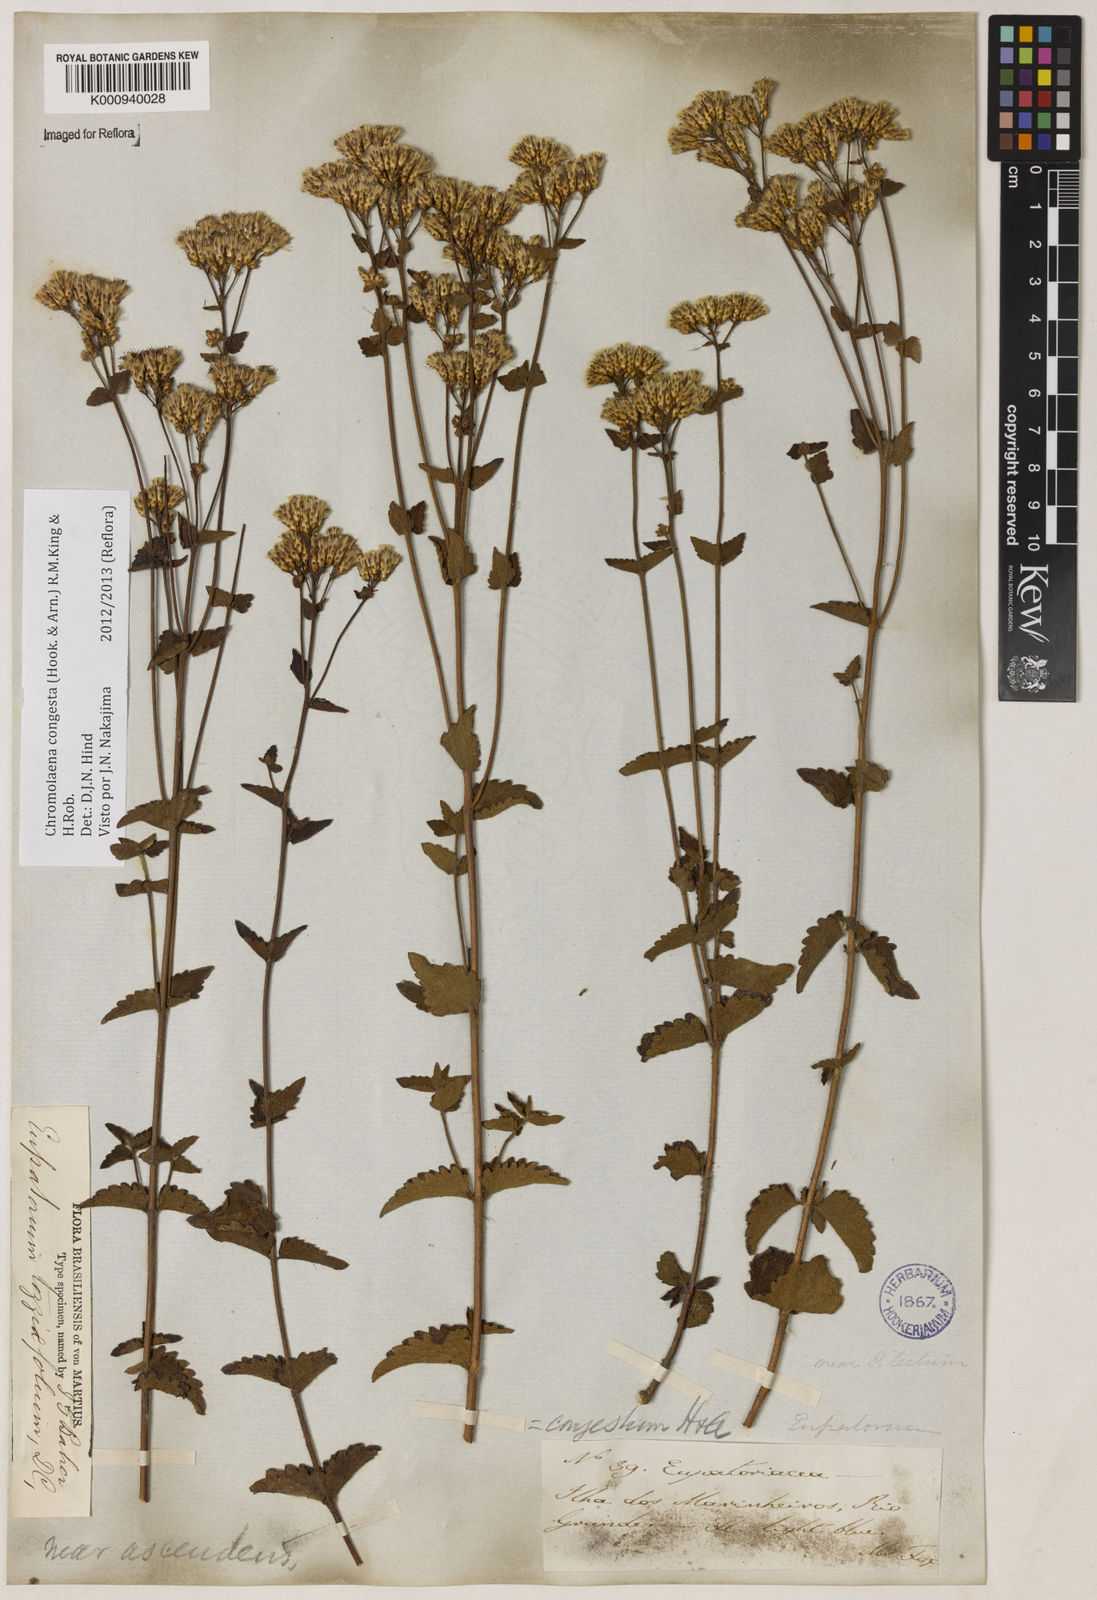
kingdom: Plantae
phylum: Tracheophyta
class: Magnoliopsida
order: Asterales
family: Asteraceae
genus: Chromolaena
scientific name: Chromolaena congesta
